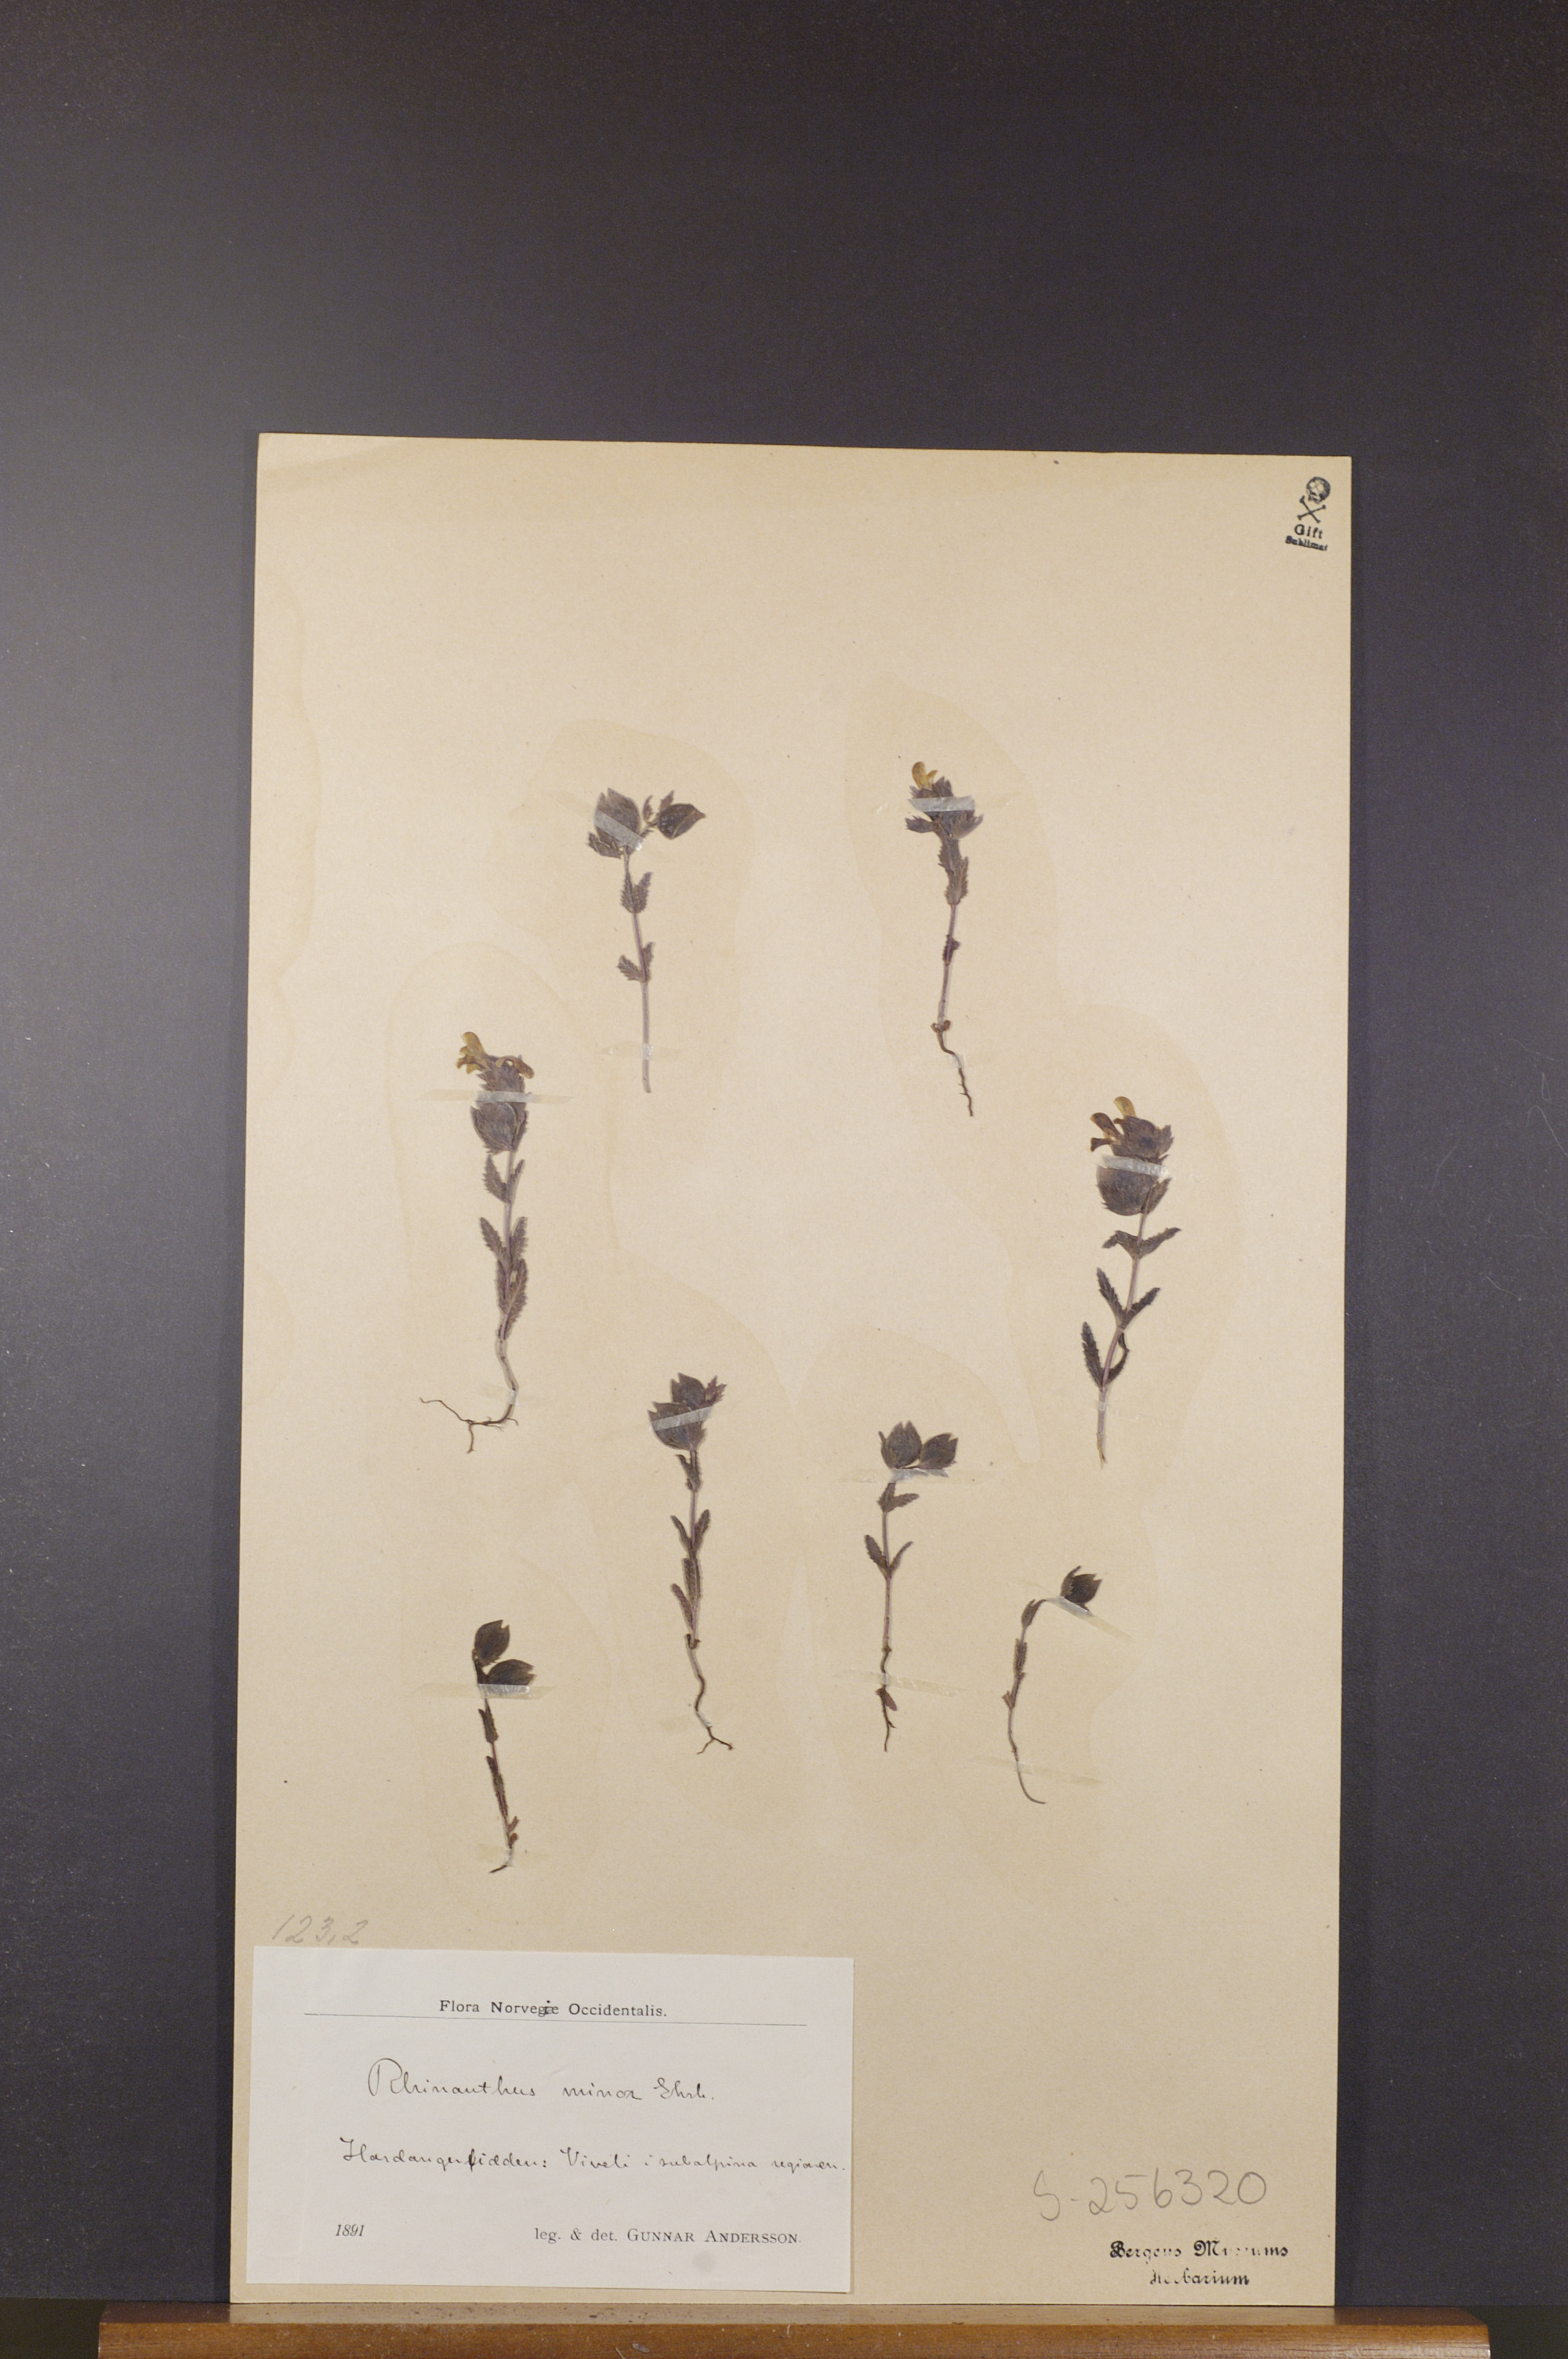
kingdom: Plantae
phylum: Tracheophyta
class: Magnoliopsida
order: Lamiales
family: Orobanchaceae
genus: Rhinanthus
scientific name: Rhinanthus minor
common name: Yellow-rattle
